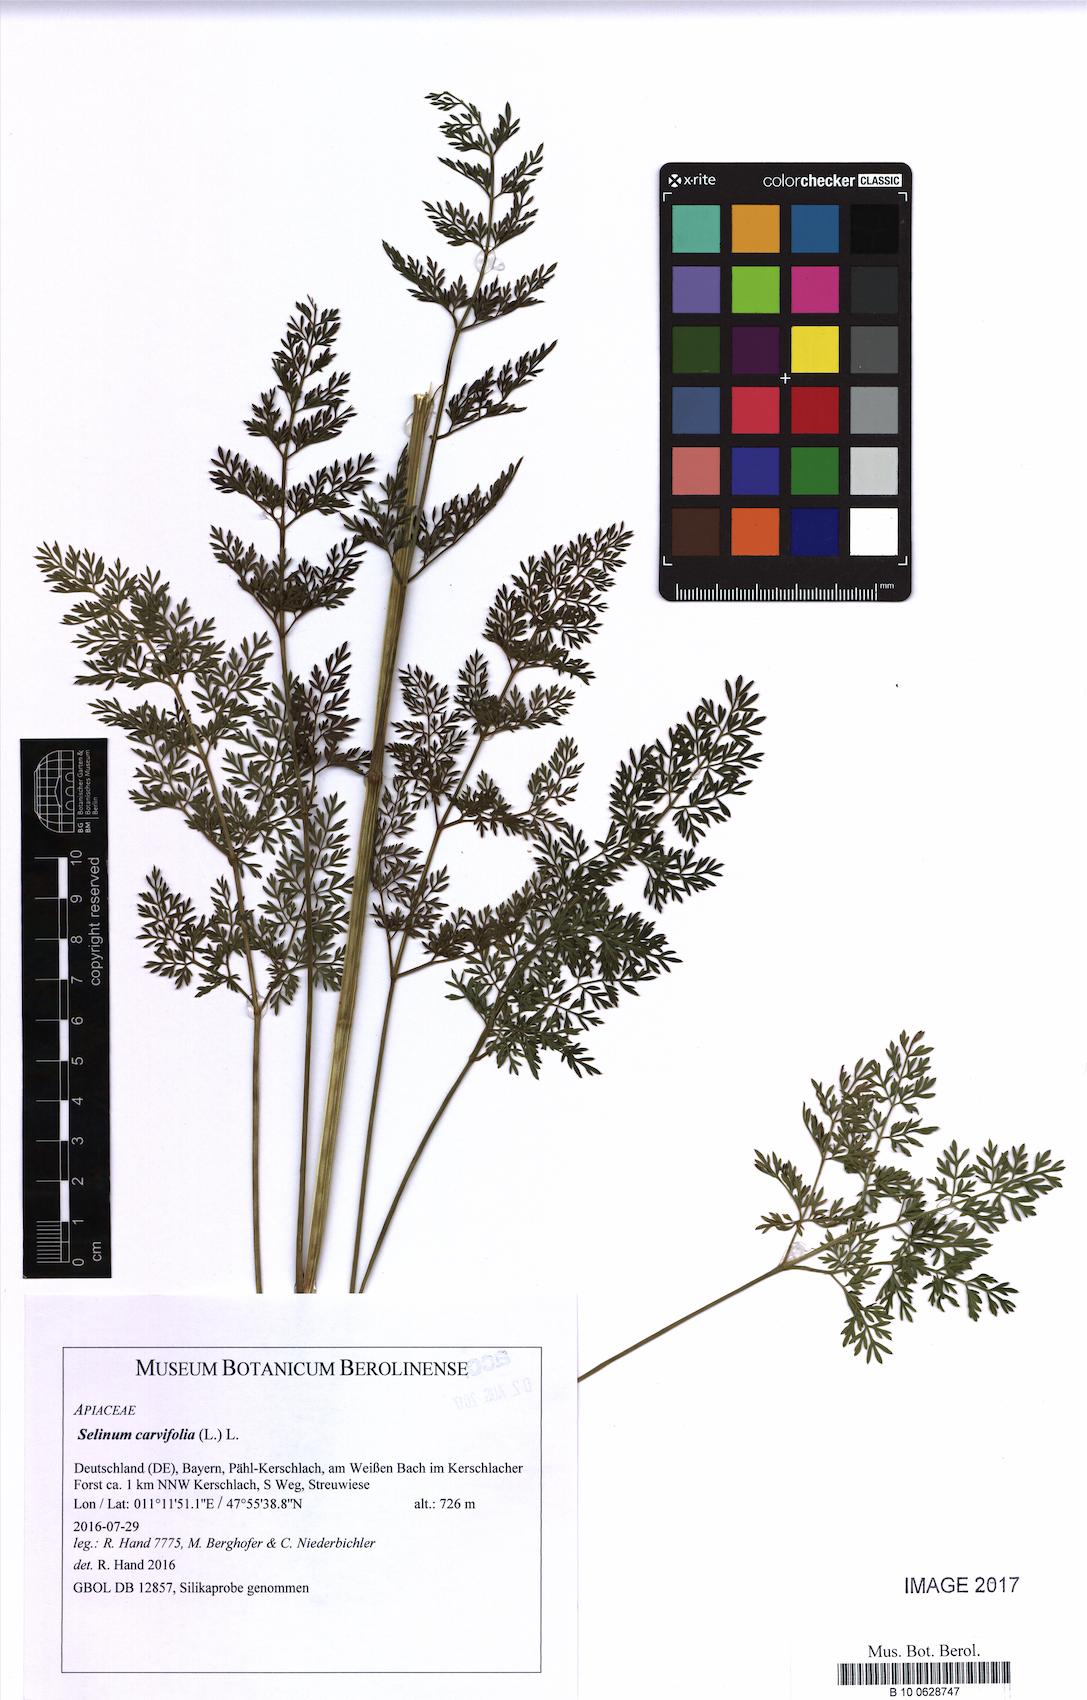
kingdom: Plantae
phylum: Tracheophyta
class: Magnoliopsida
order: Apiales
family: Apiaceae
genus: Selinum
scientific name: Selinum carvifolia
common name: Cambridge milk-parsley
